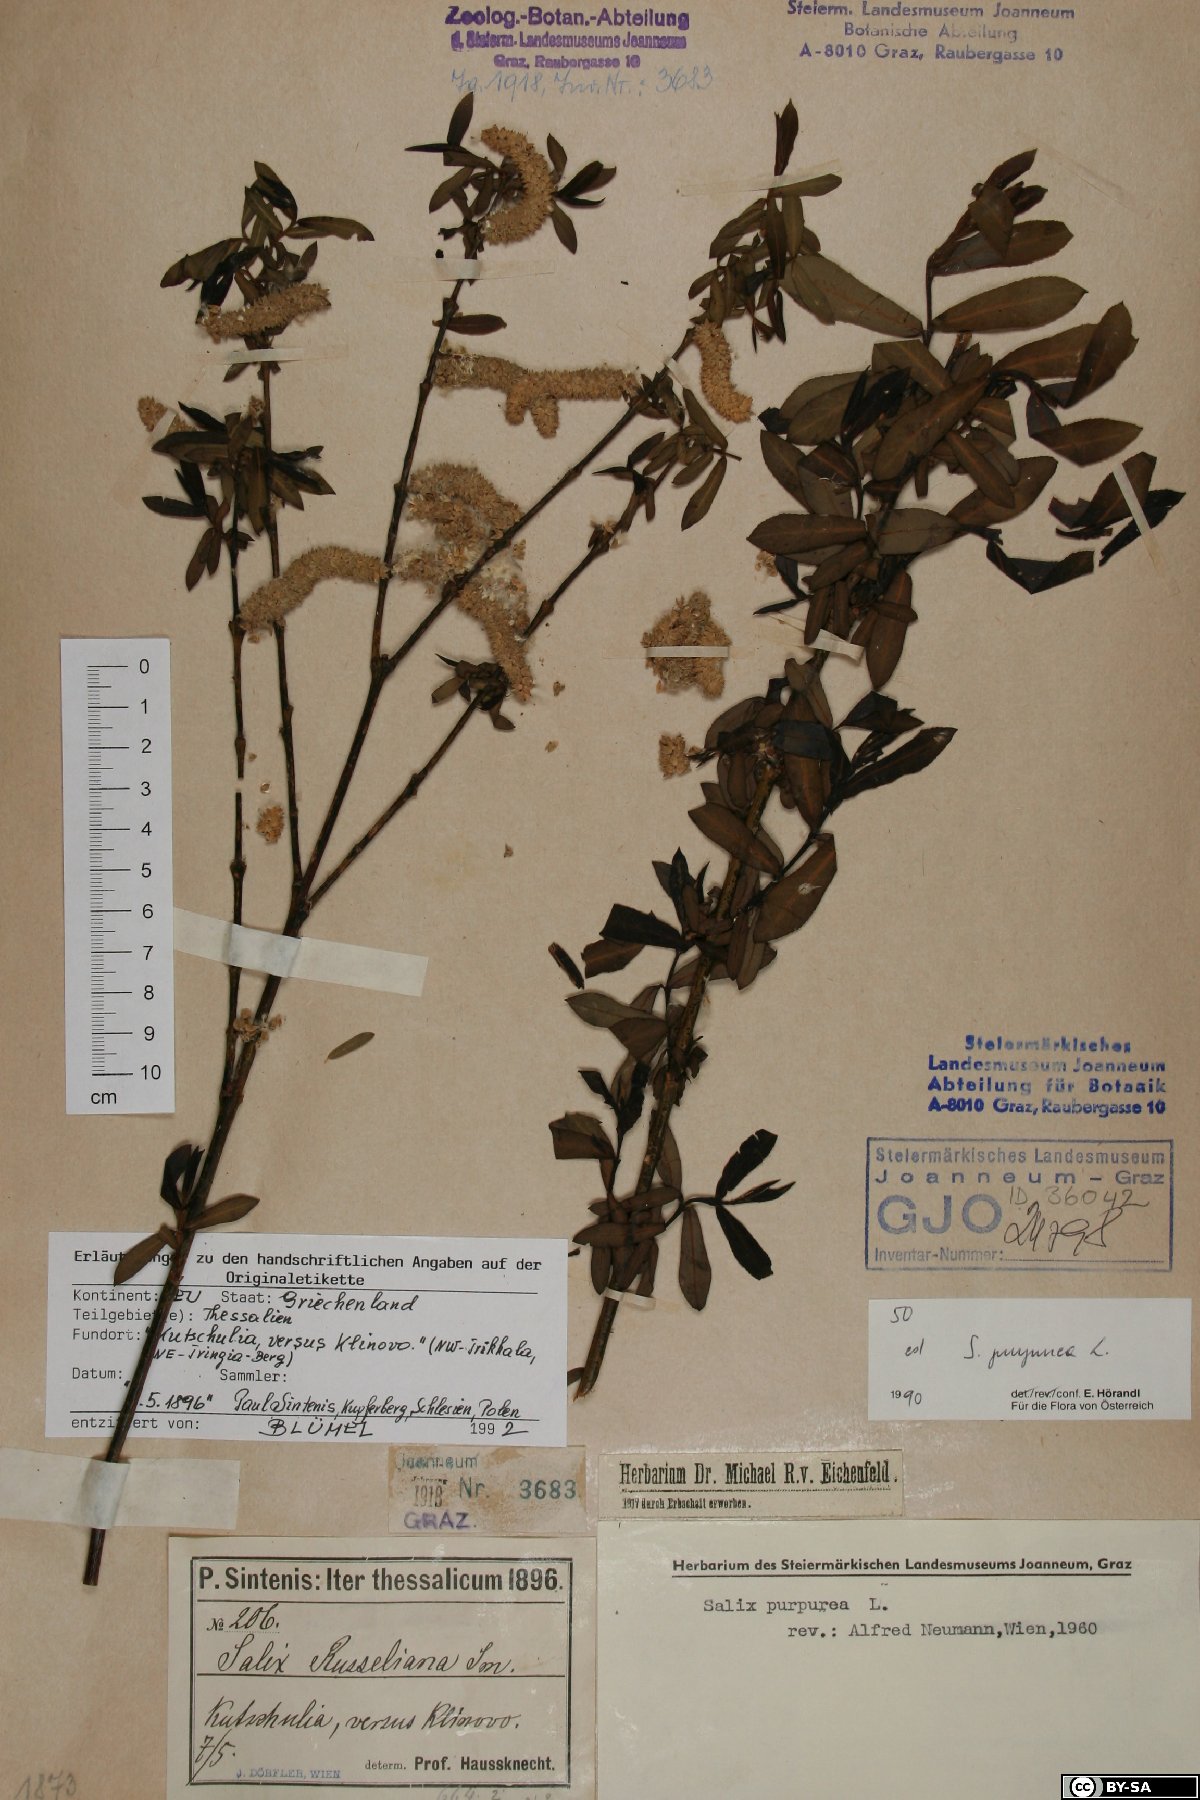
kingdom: Plantae
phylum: Tracheophyta
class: Magnoliopsida
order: Malpighiales
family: Salicaceae
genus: Salix
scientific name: Salix purpurea
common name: Purple willow
